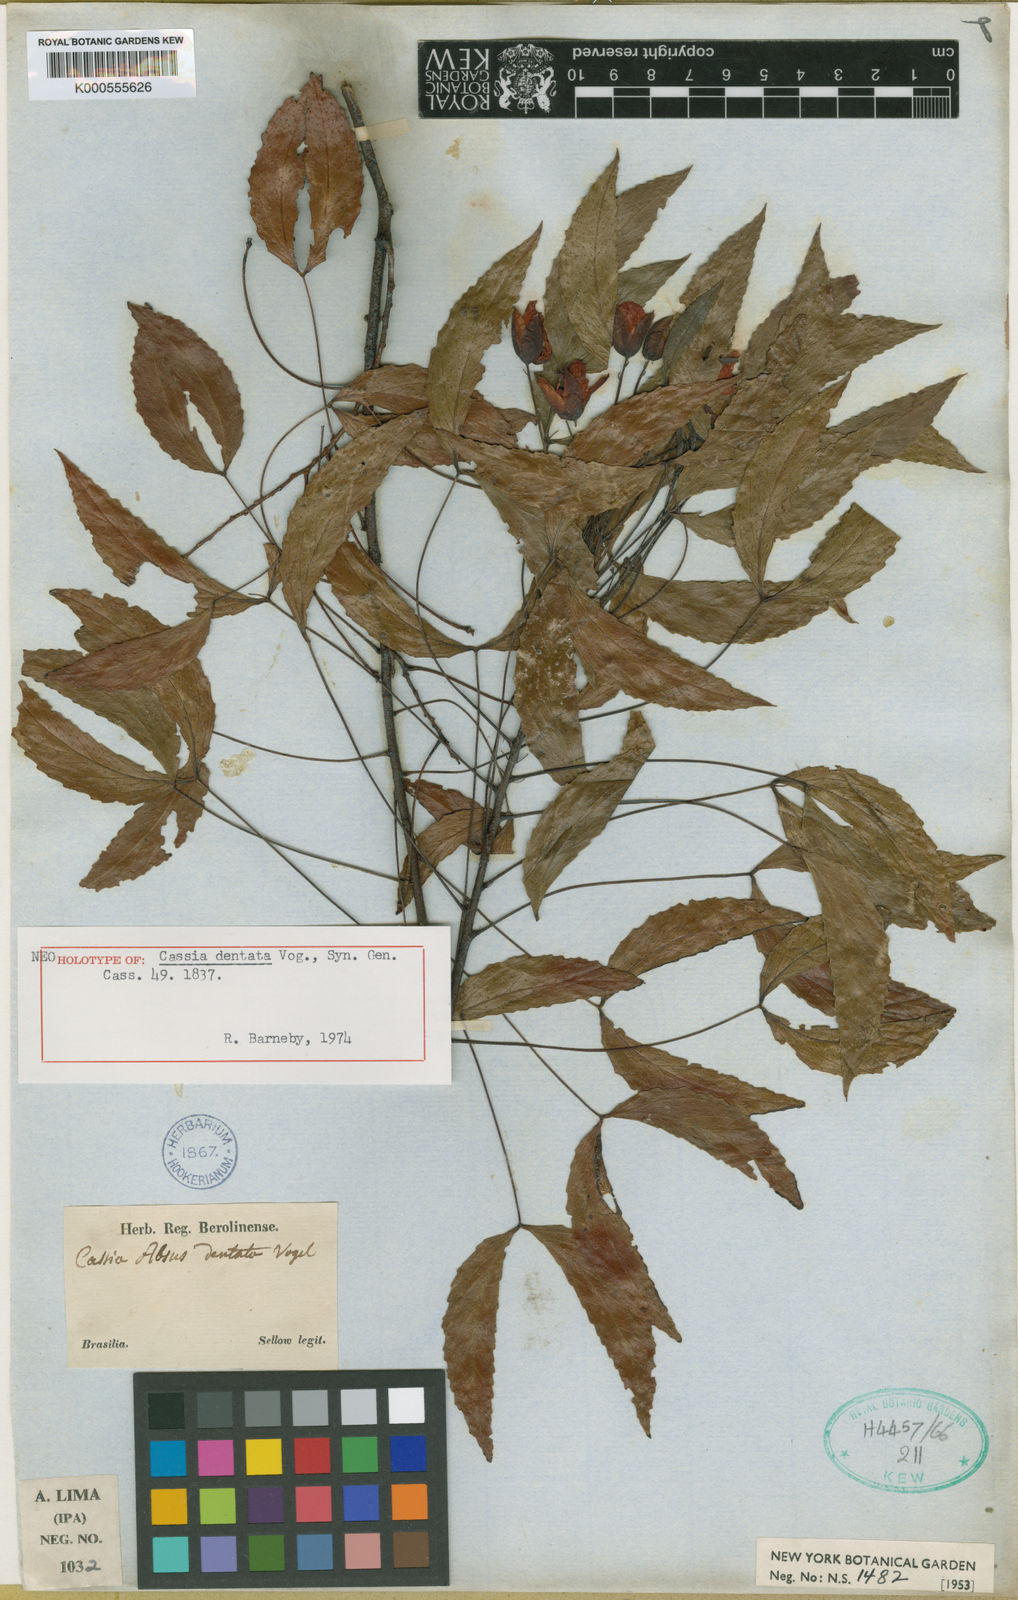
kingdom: Plantae
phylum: Tracheophyta
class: Magnoliopsida
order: Fabales
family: Fabaceae
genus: Chamaecrista
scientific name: Chamaecrista dentata
